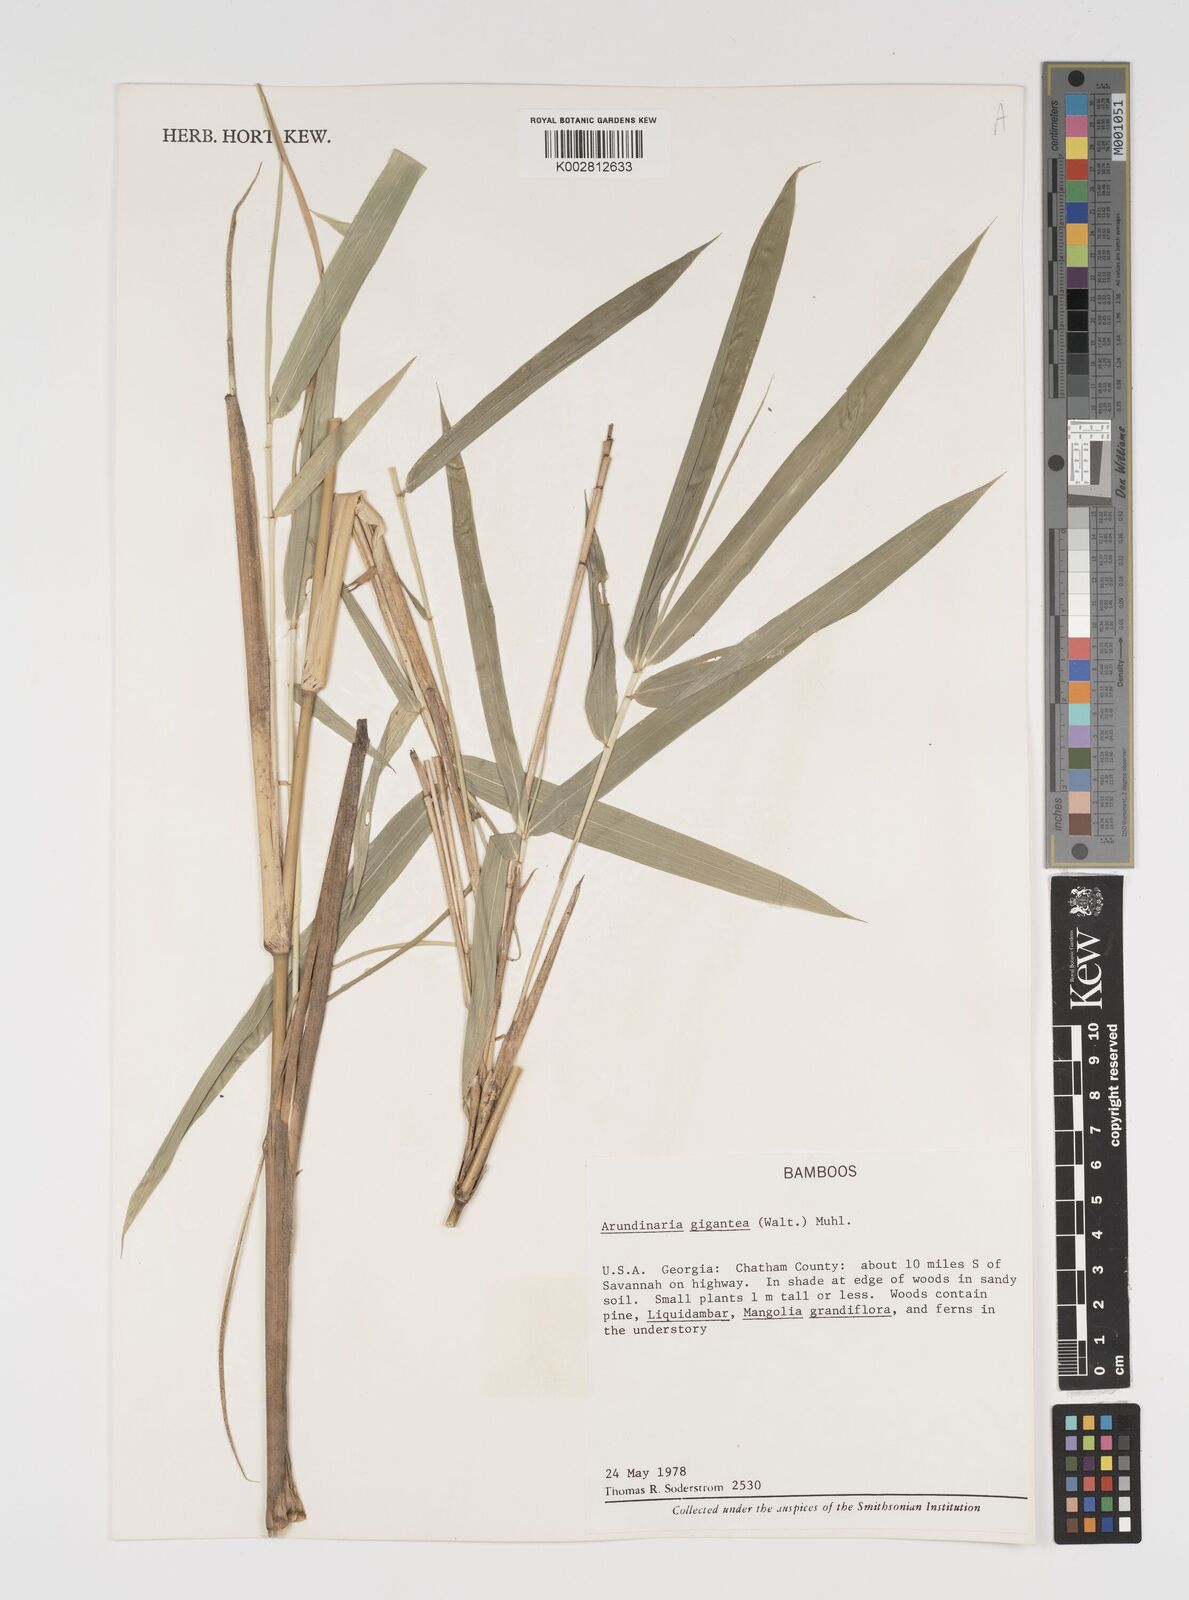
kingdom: Plantae
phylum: Tracheophyta
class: Liliopsida
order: Poales
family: Poaceae
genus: Arundinaria
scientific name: Arundinaria
